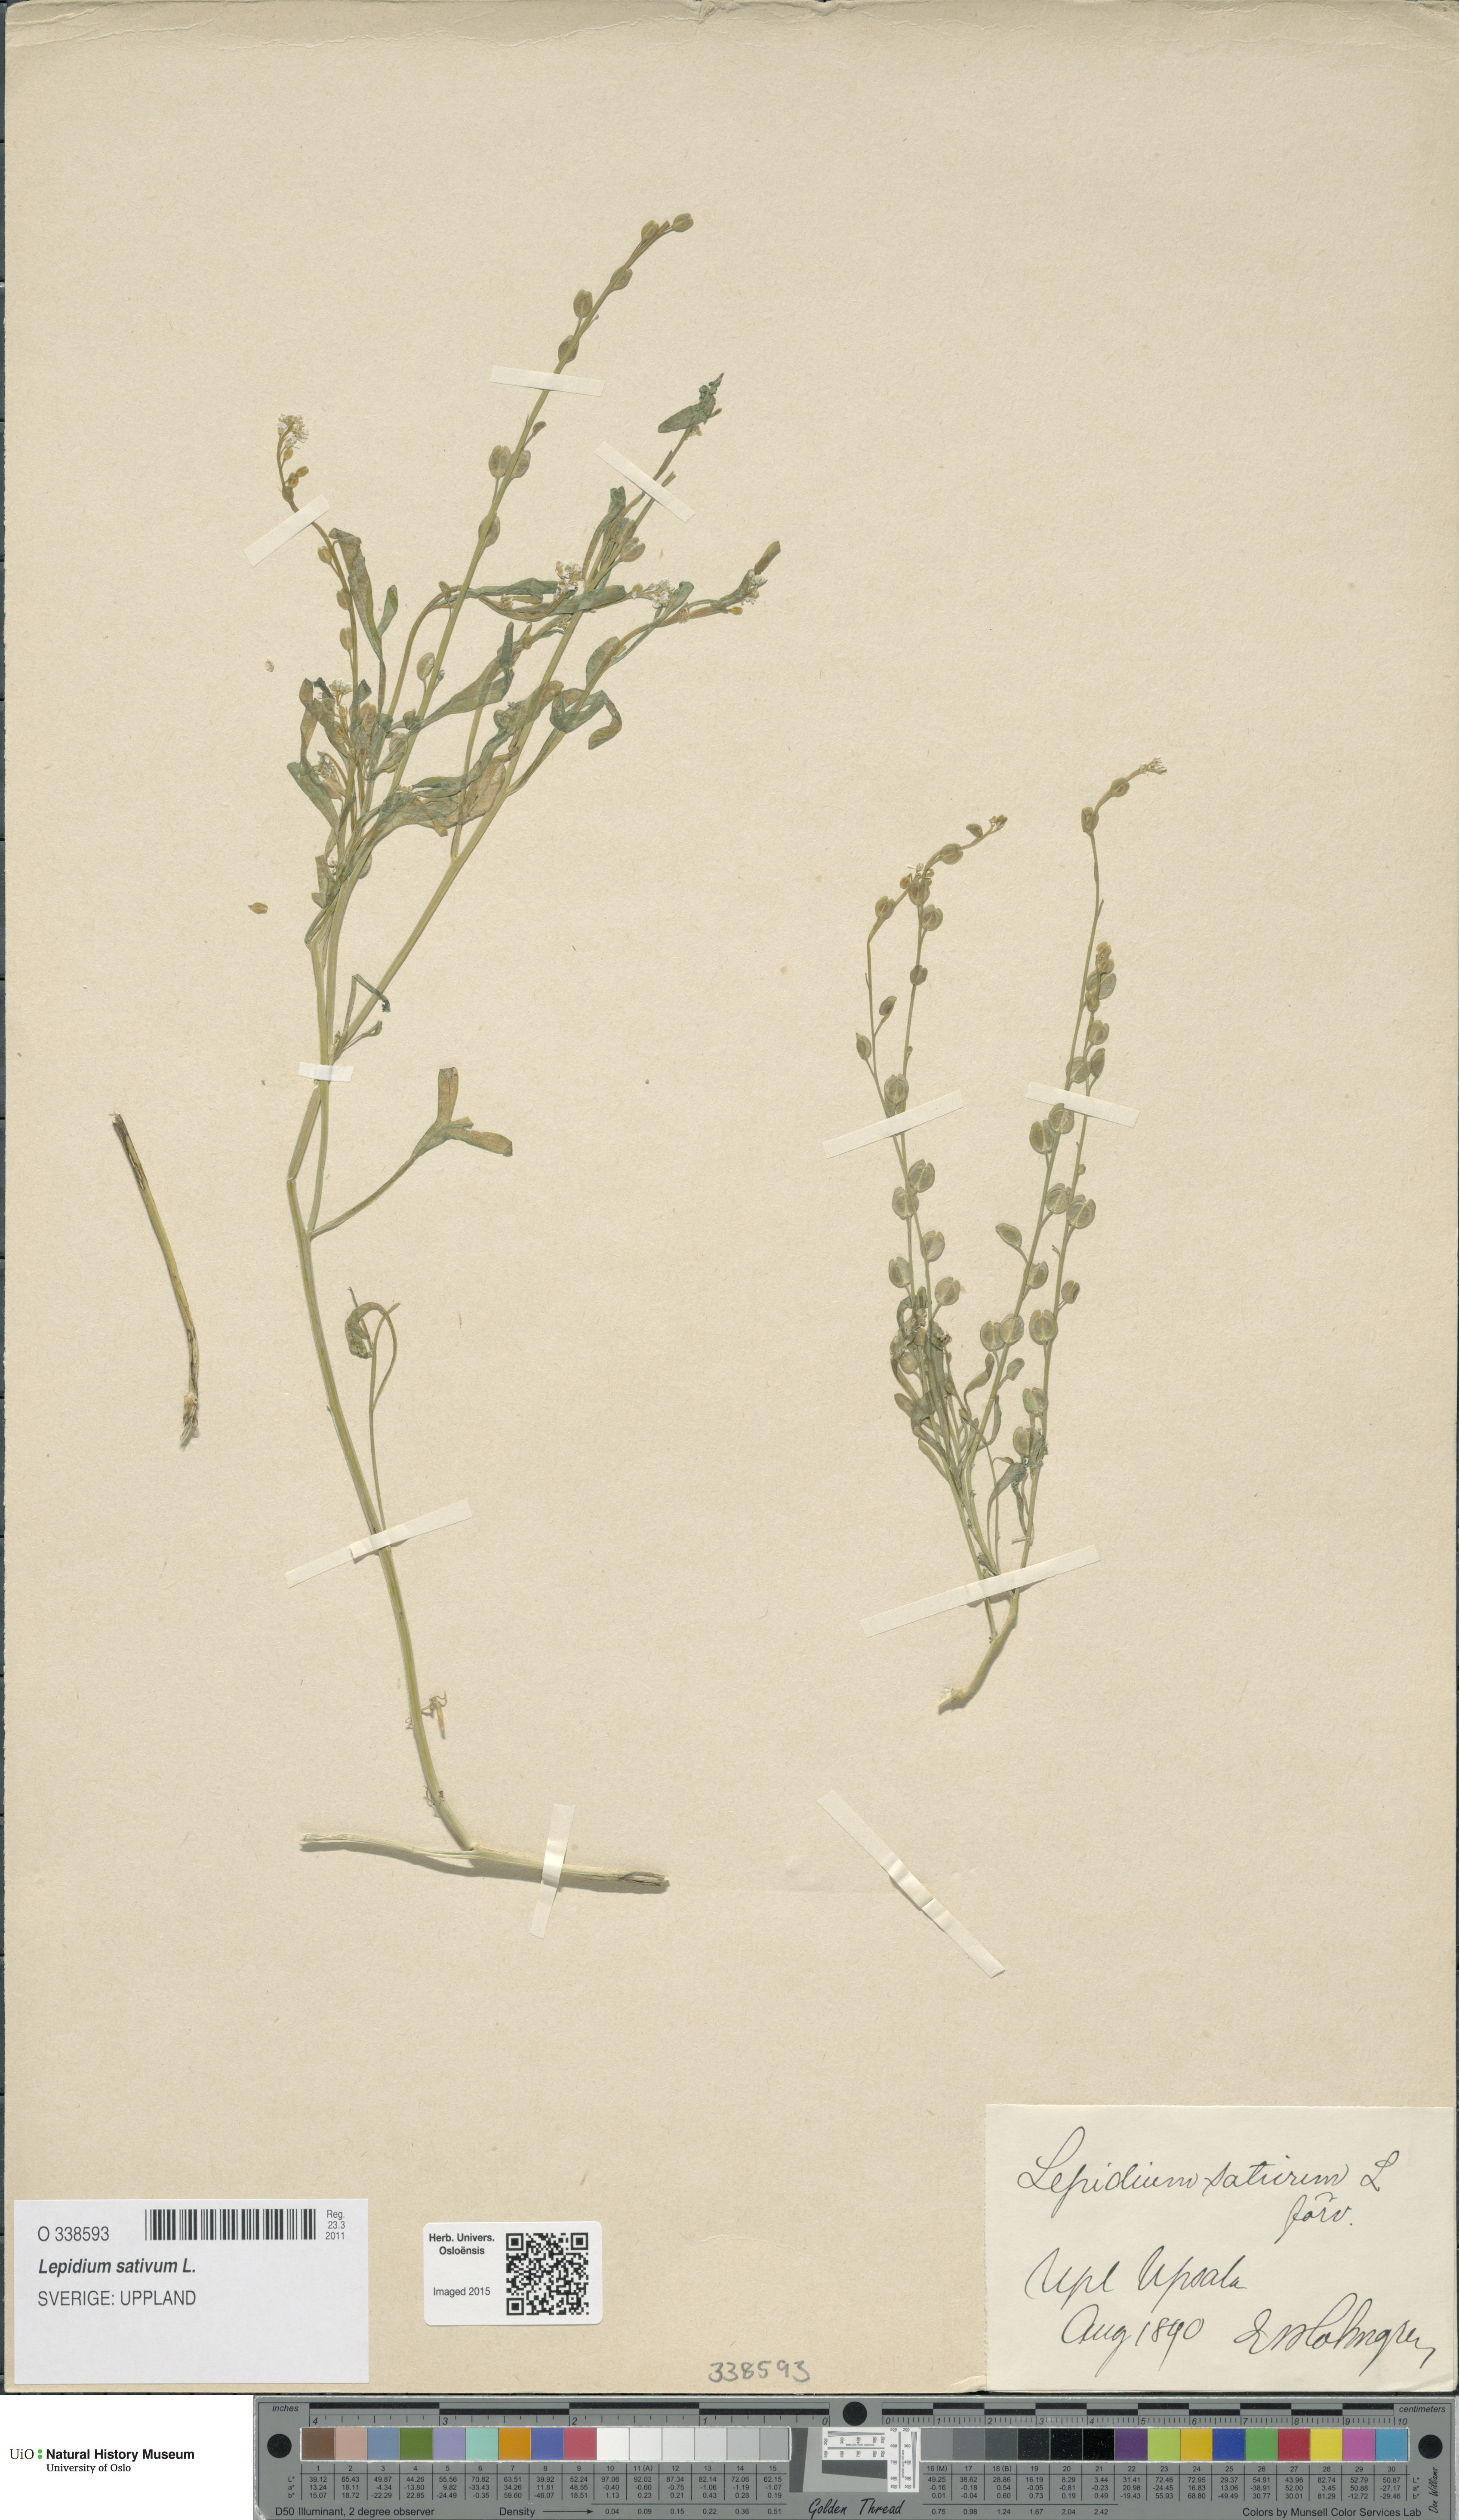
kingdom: Plantae
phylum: Tracheophyta
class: Magnoliopsida
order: Brassicales
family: Brassicaceae
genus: Lepidium
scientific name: Lepidium sativum
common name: Garden cress
